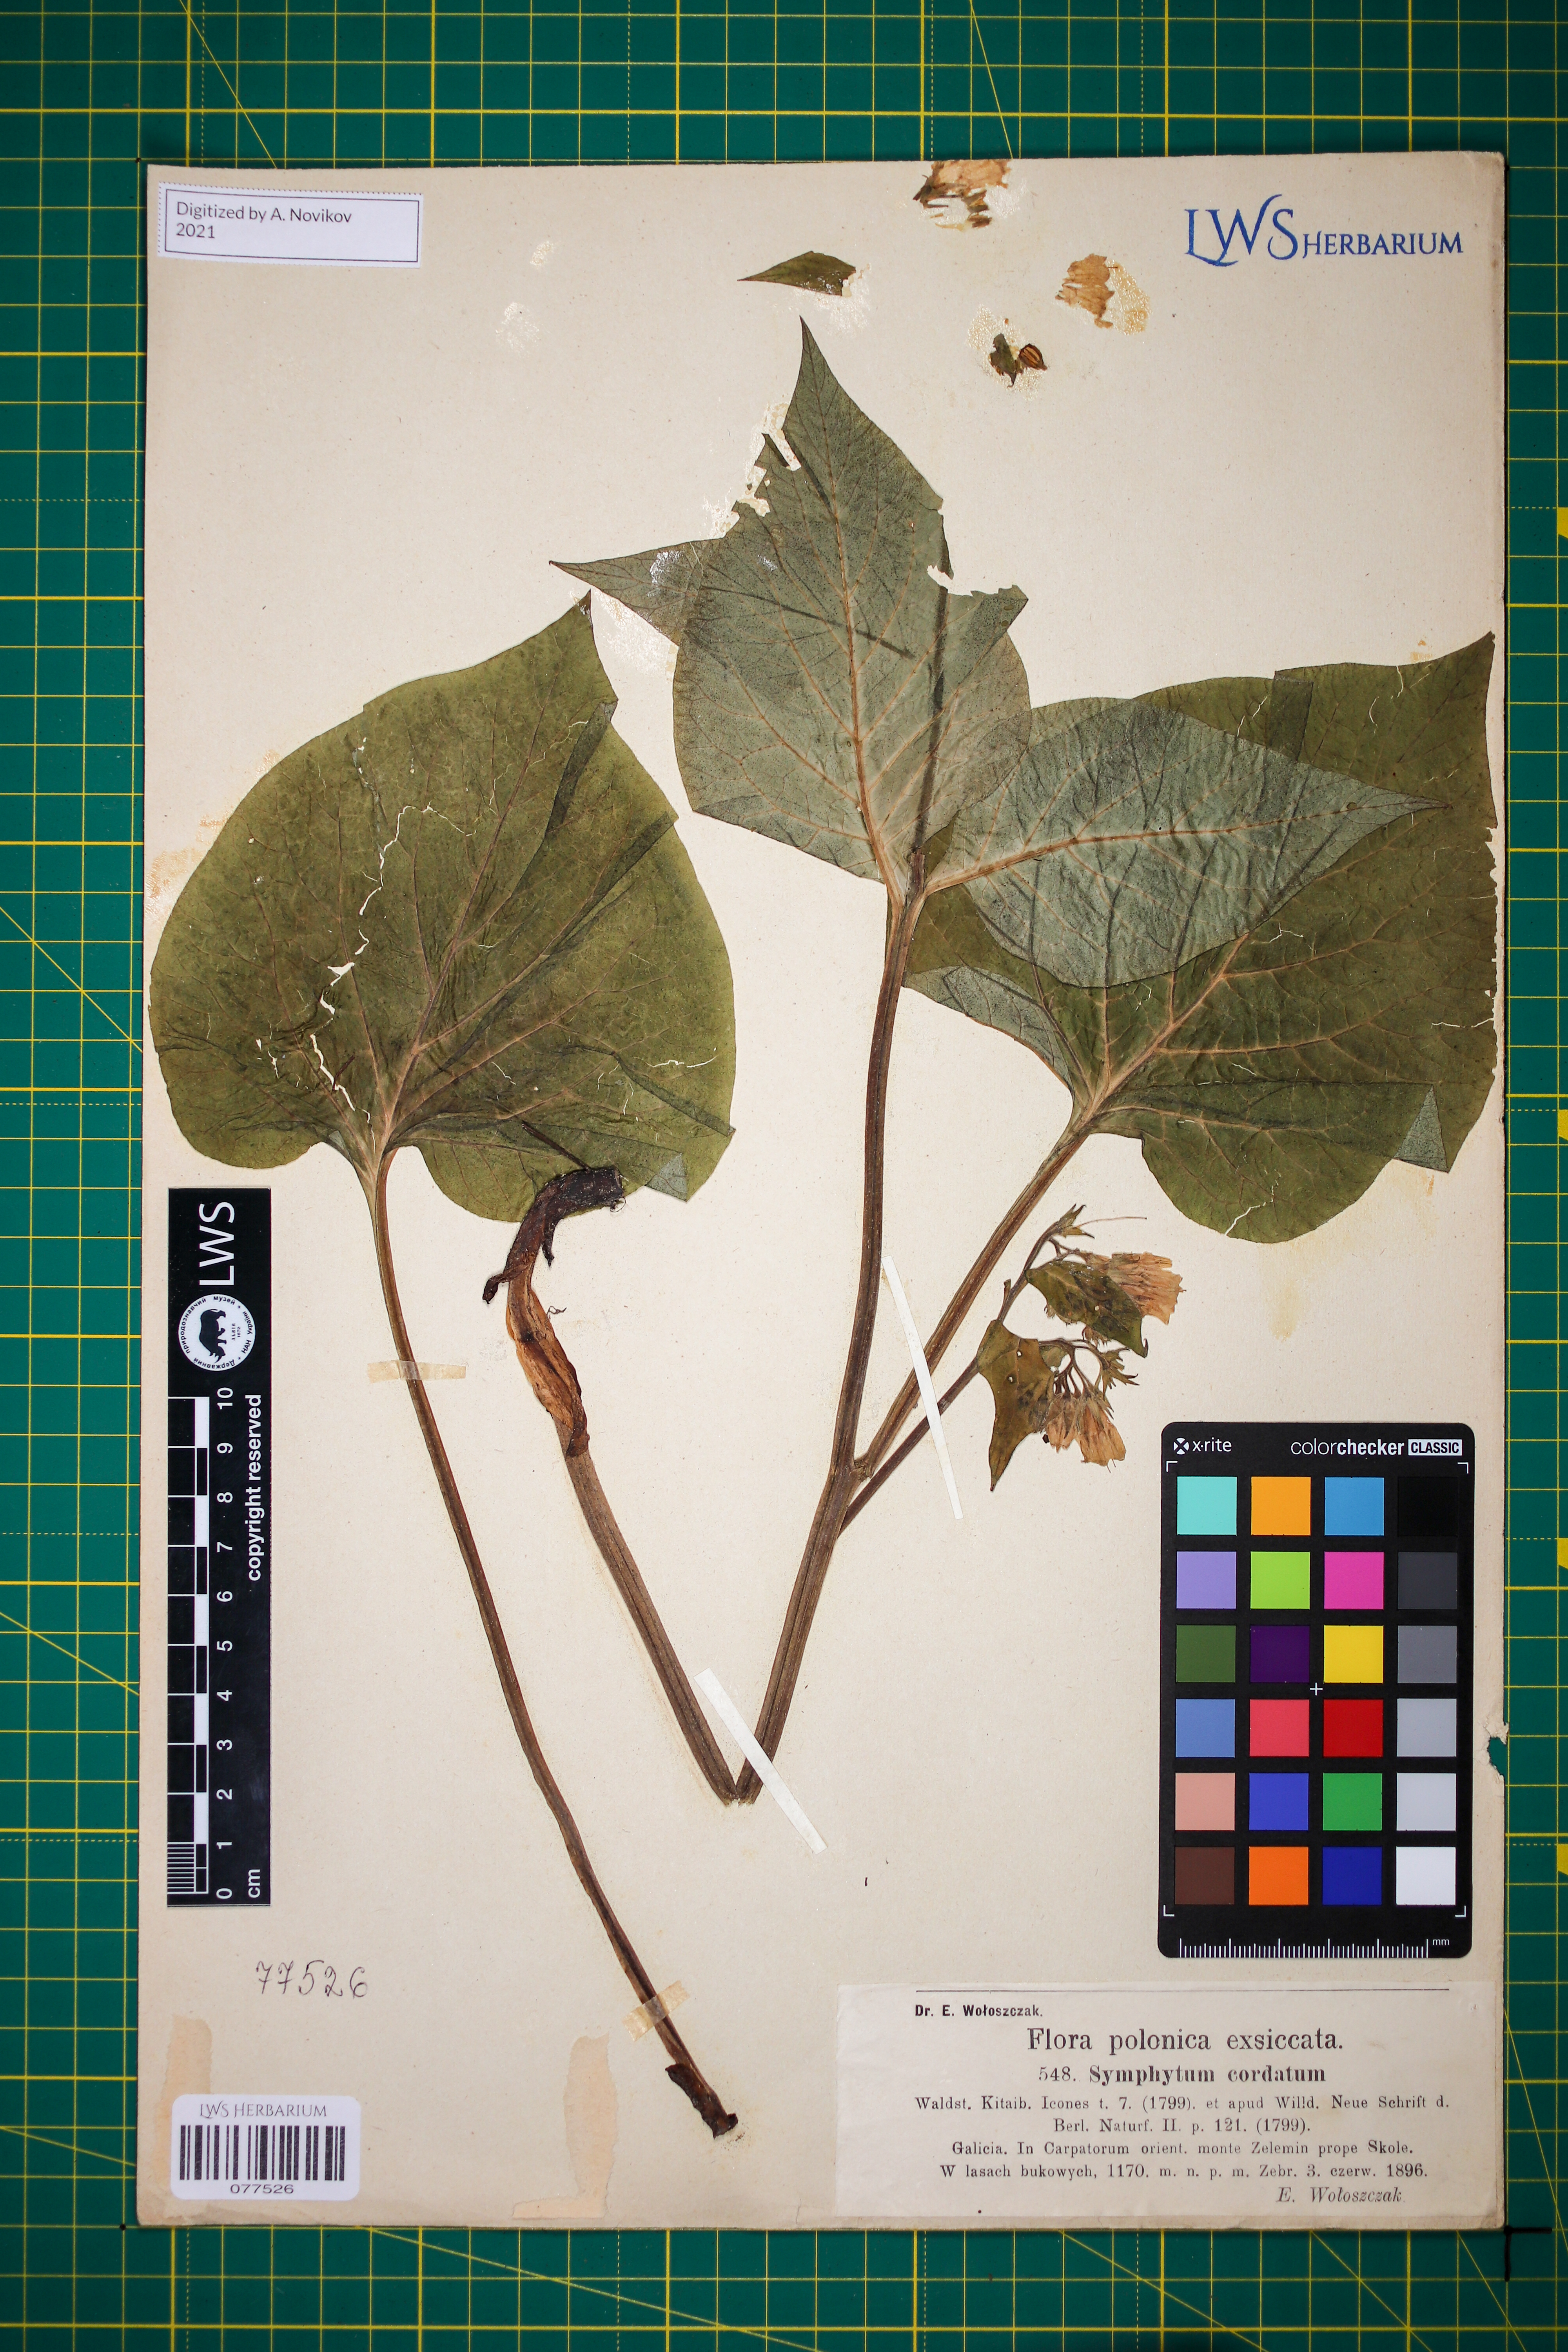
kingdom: Plantae
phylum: Tracheophyta
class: Magnoliopsida
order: Boraginales
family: Boraginaceae
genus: Symphytum
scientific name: Symphytum cordatum
